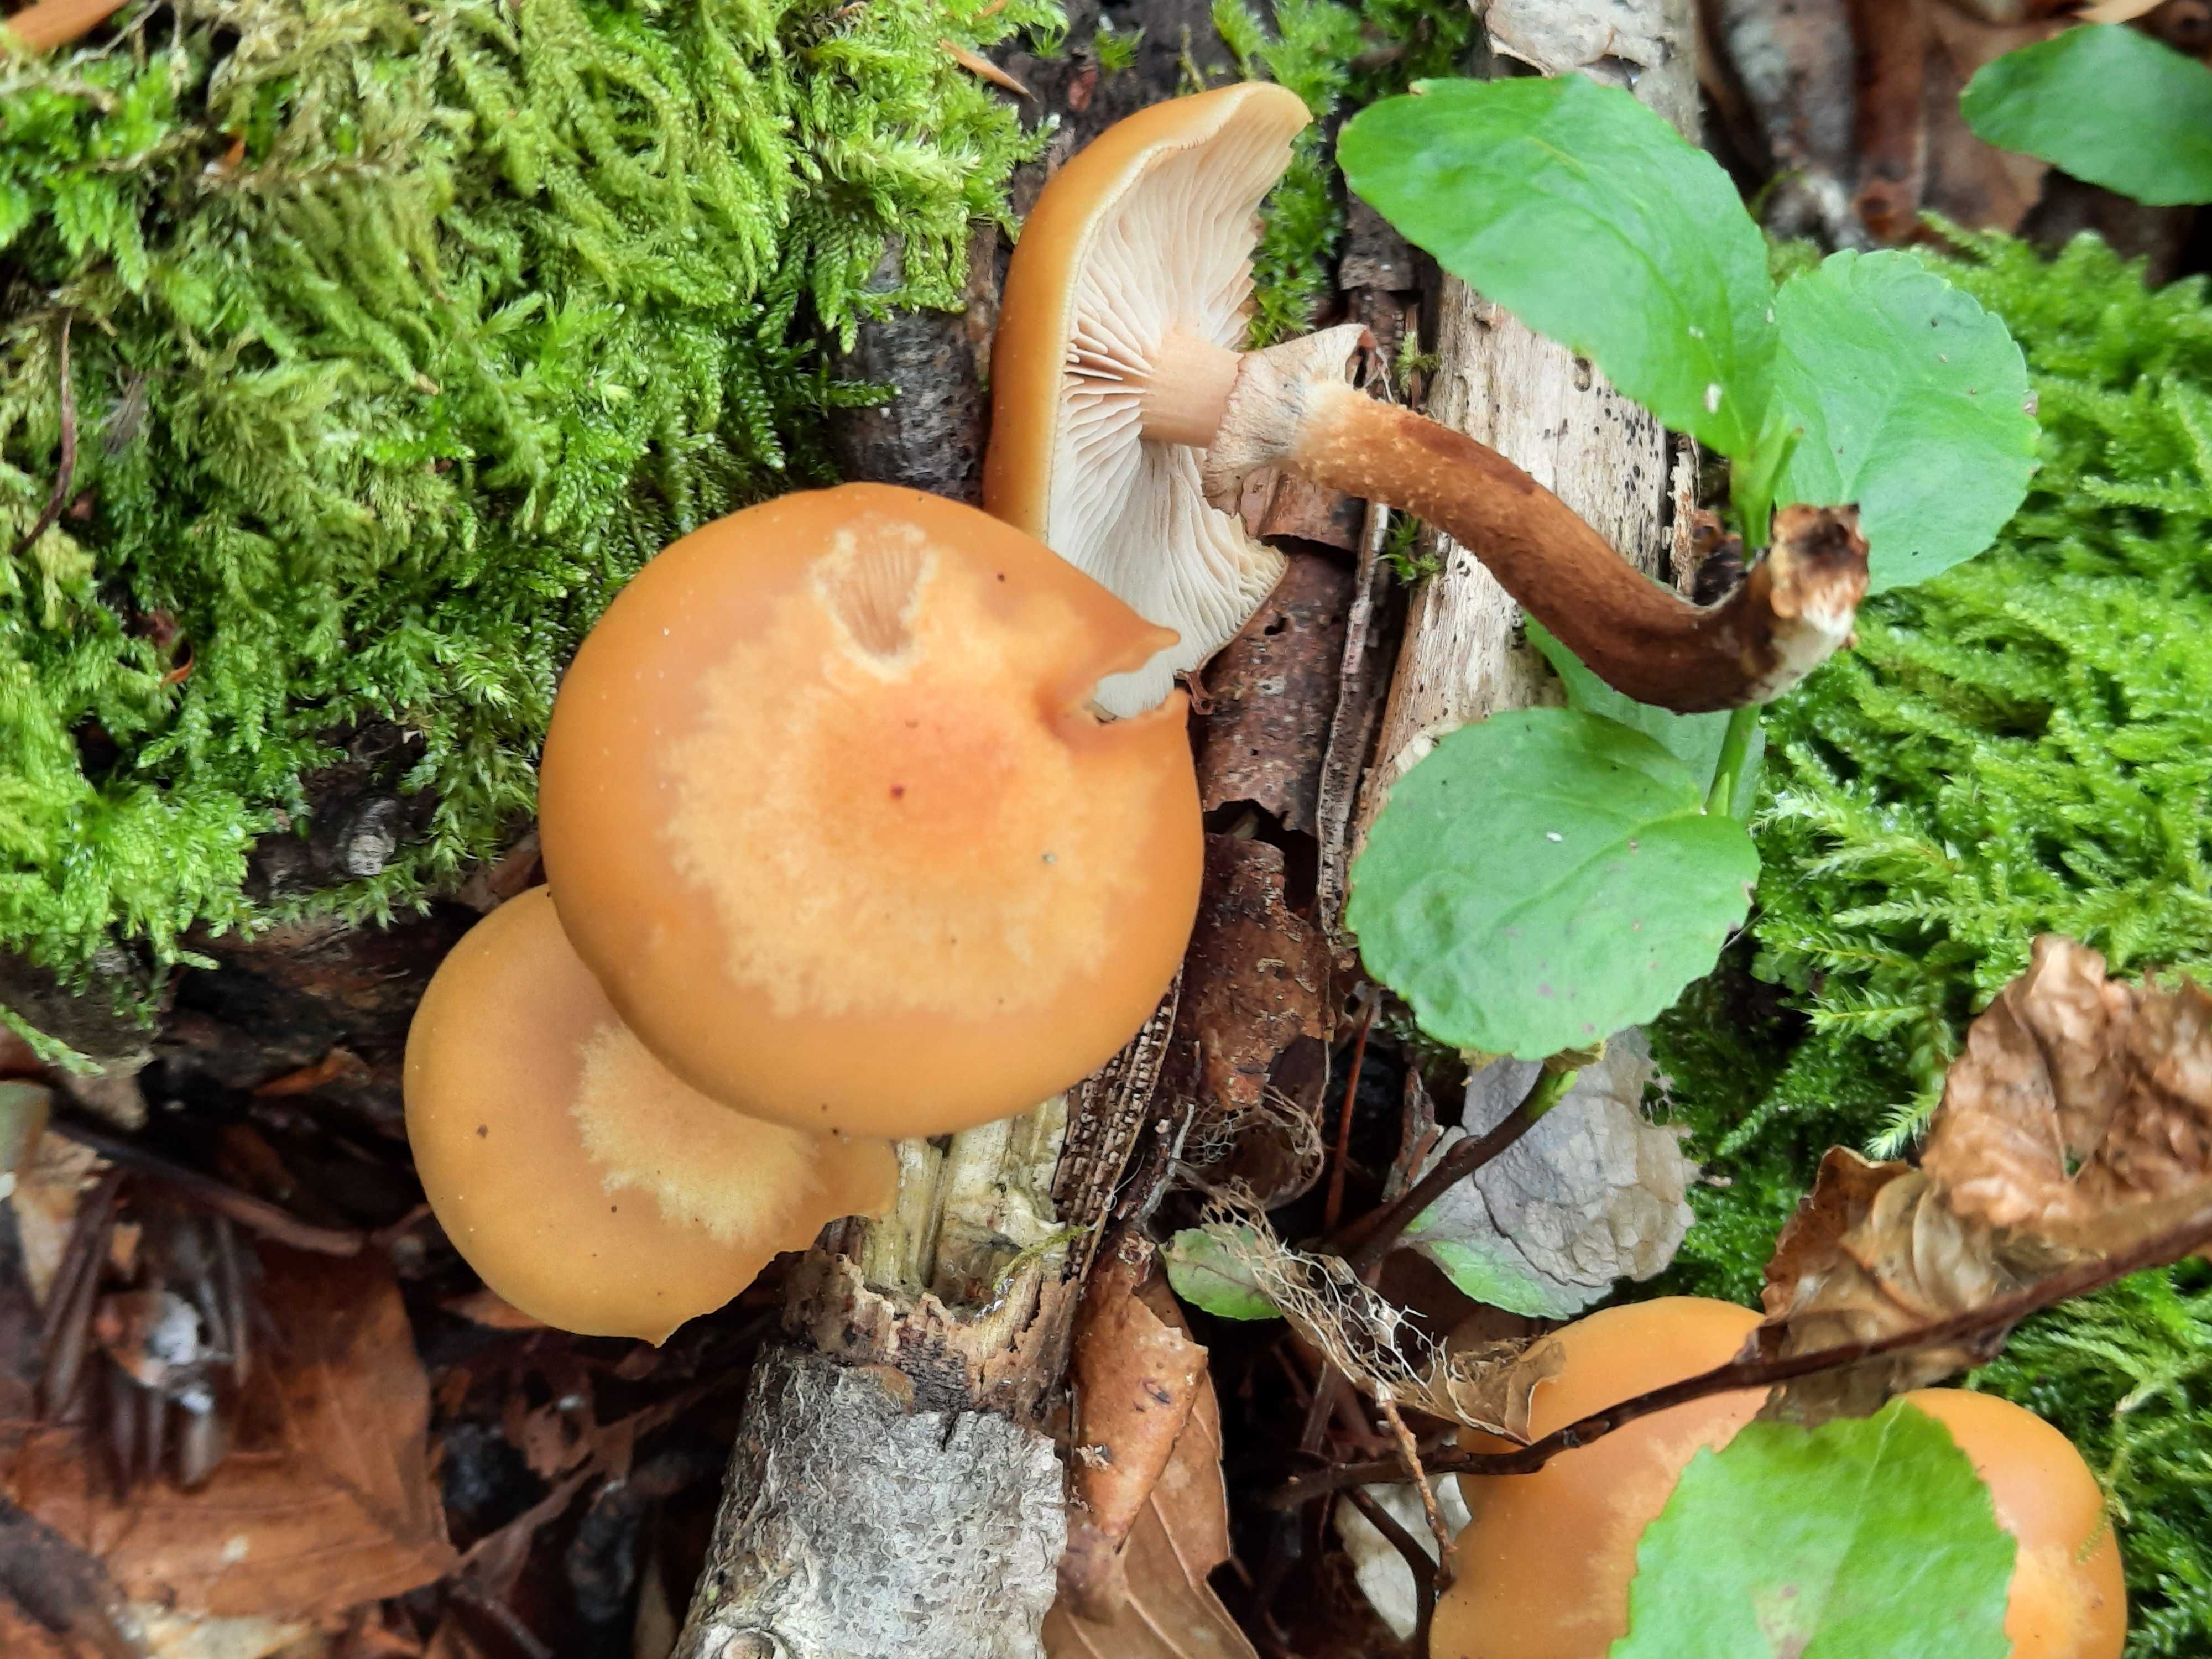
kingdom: Fungi
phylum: Basidiomycota
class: Agaricomycetes
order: Agaricales
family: Strophariaceae
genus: Kuehneromyces
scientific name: Kuehneromyces mutabilis
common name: foranderlig skælhat
